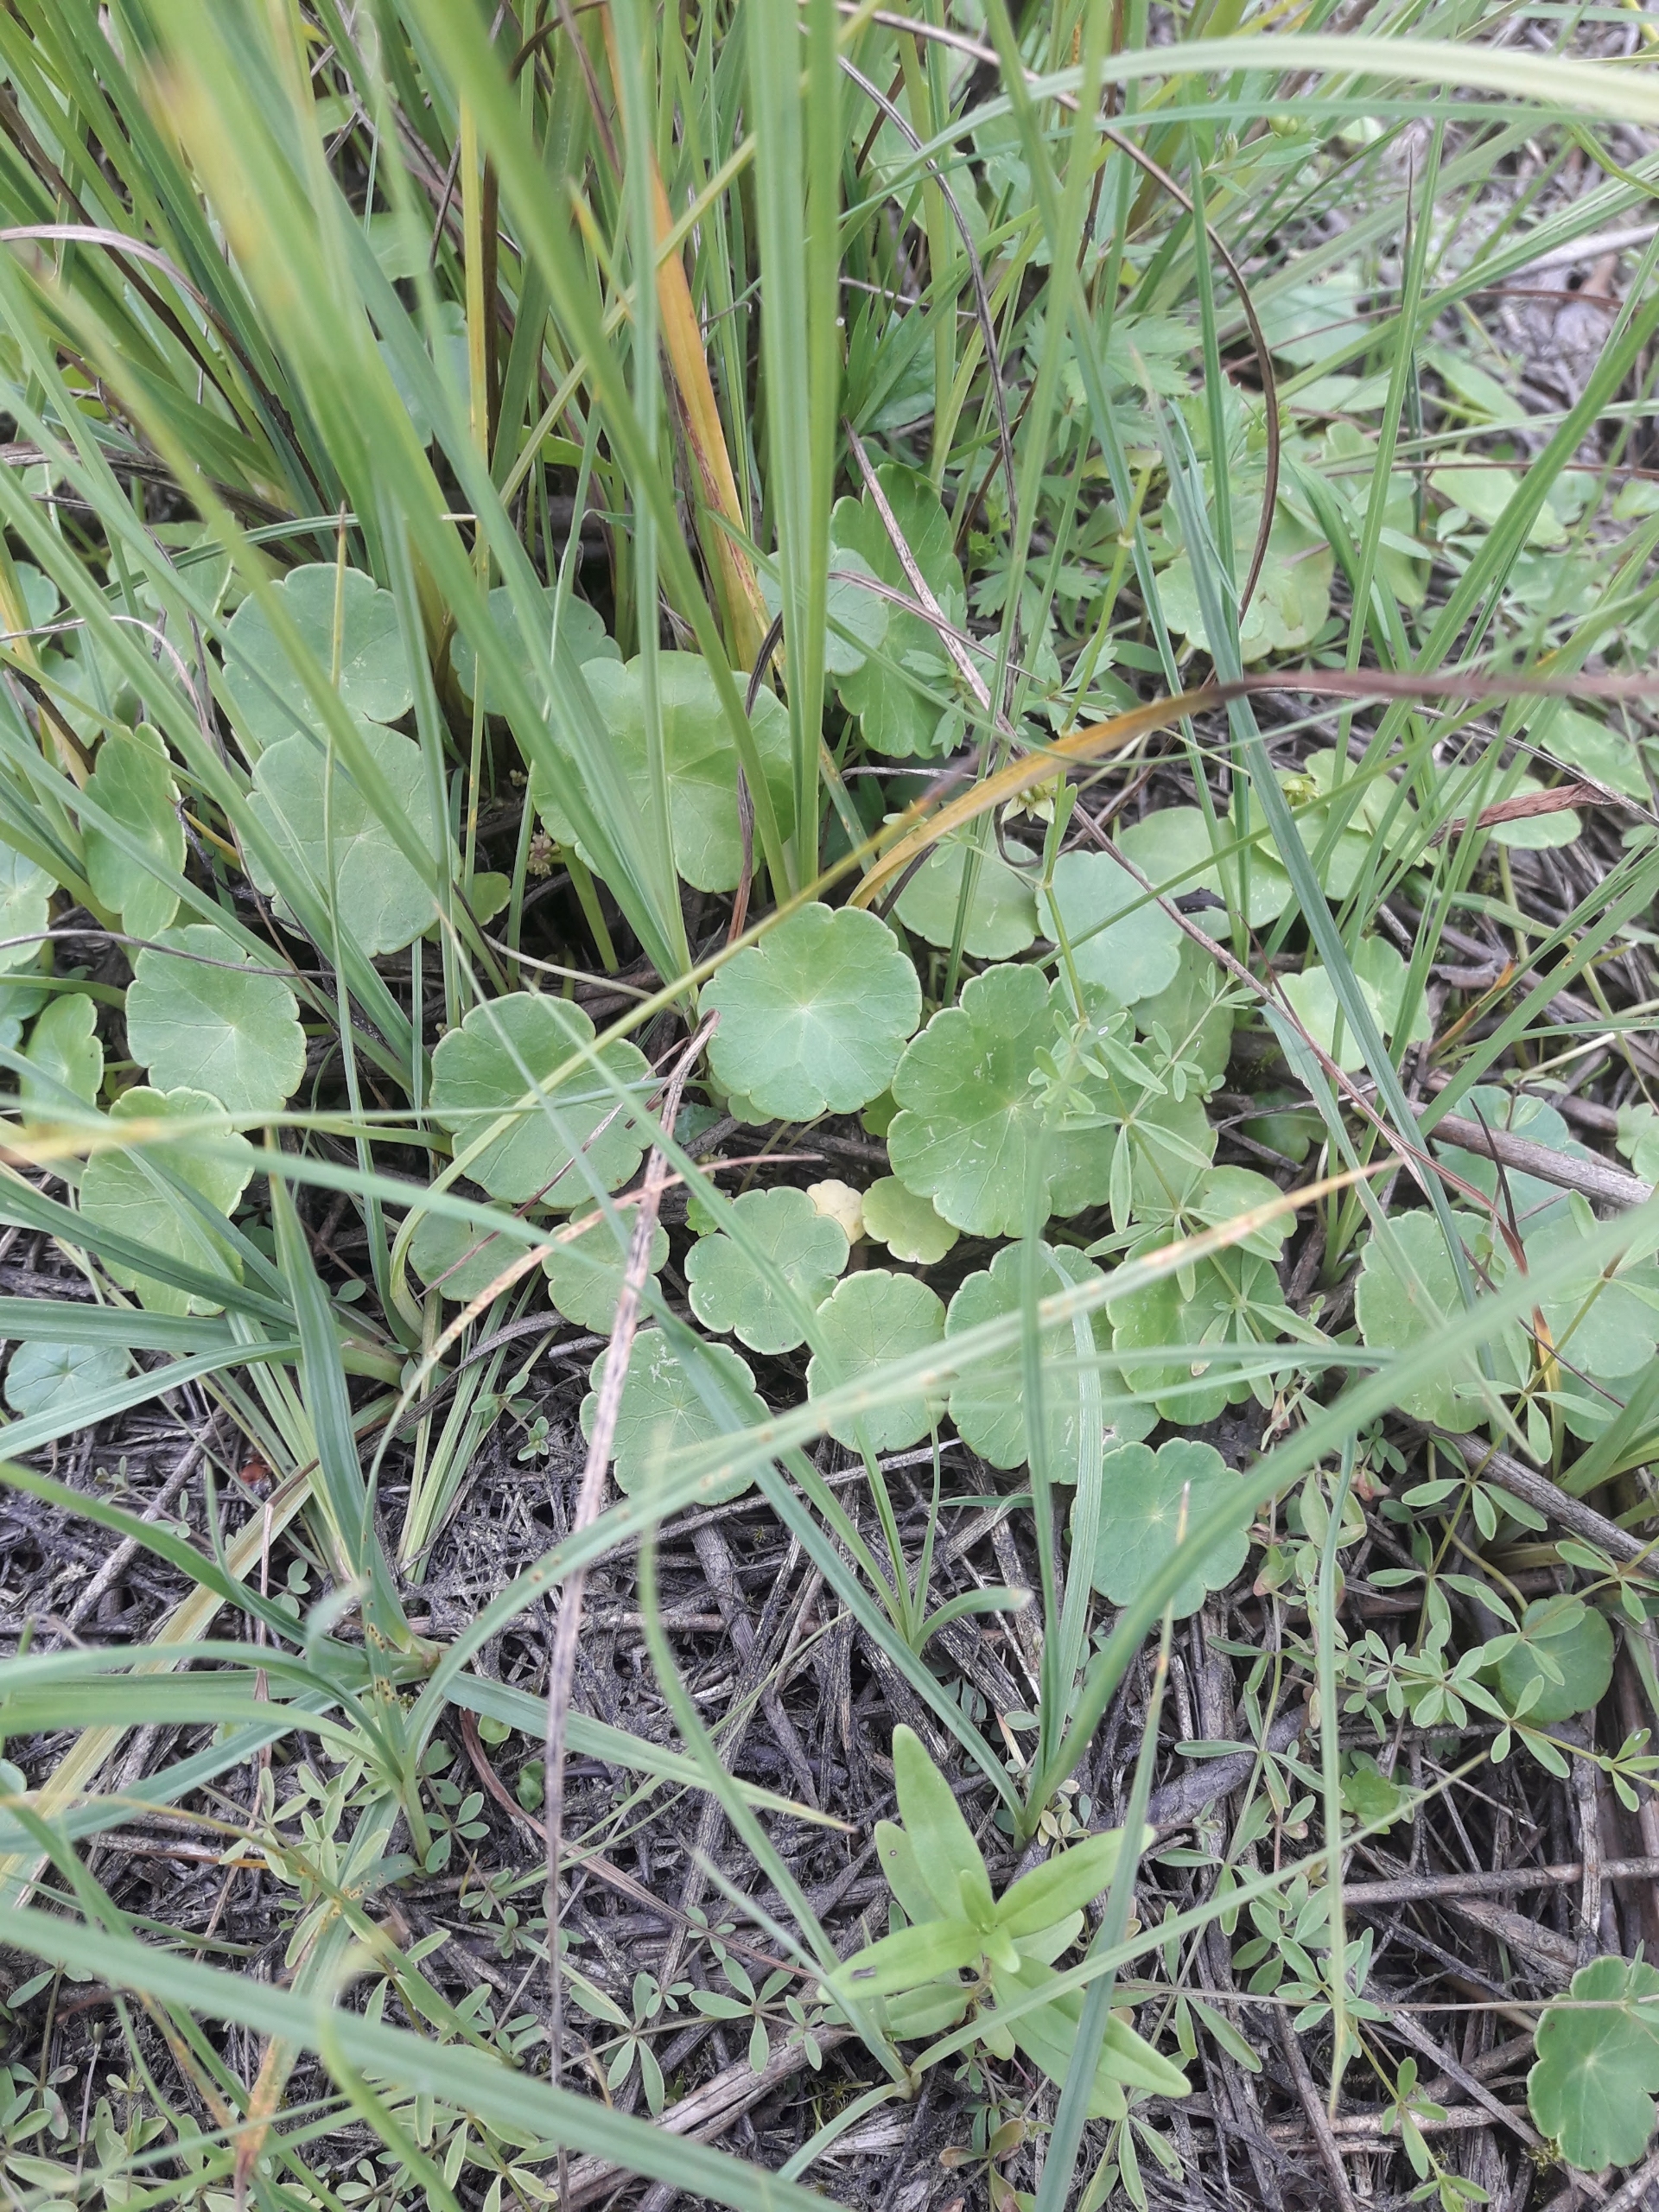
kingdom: Plantae
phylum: Tracheophyta
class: Magnoliopsida
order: Apiales
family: Araliaceae
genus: Hydrocotyle
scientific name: Hydrocotyle vulgaris
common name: Vandnavle
